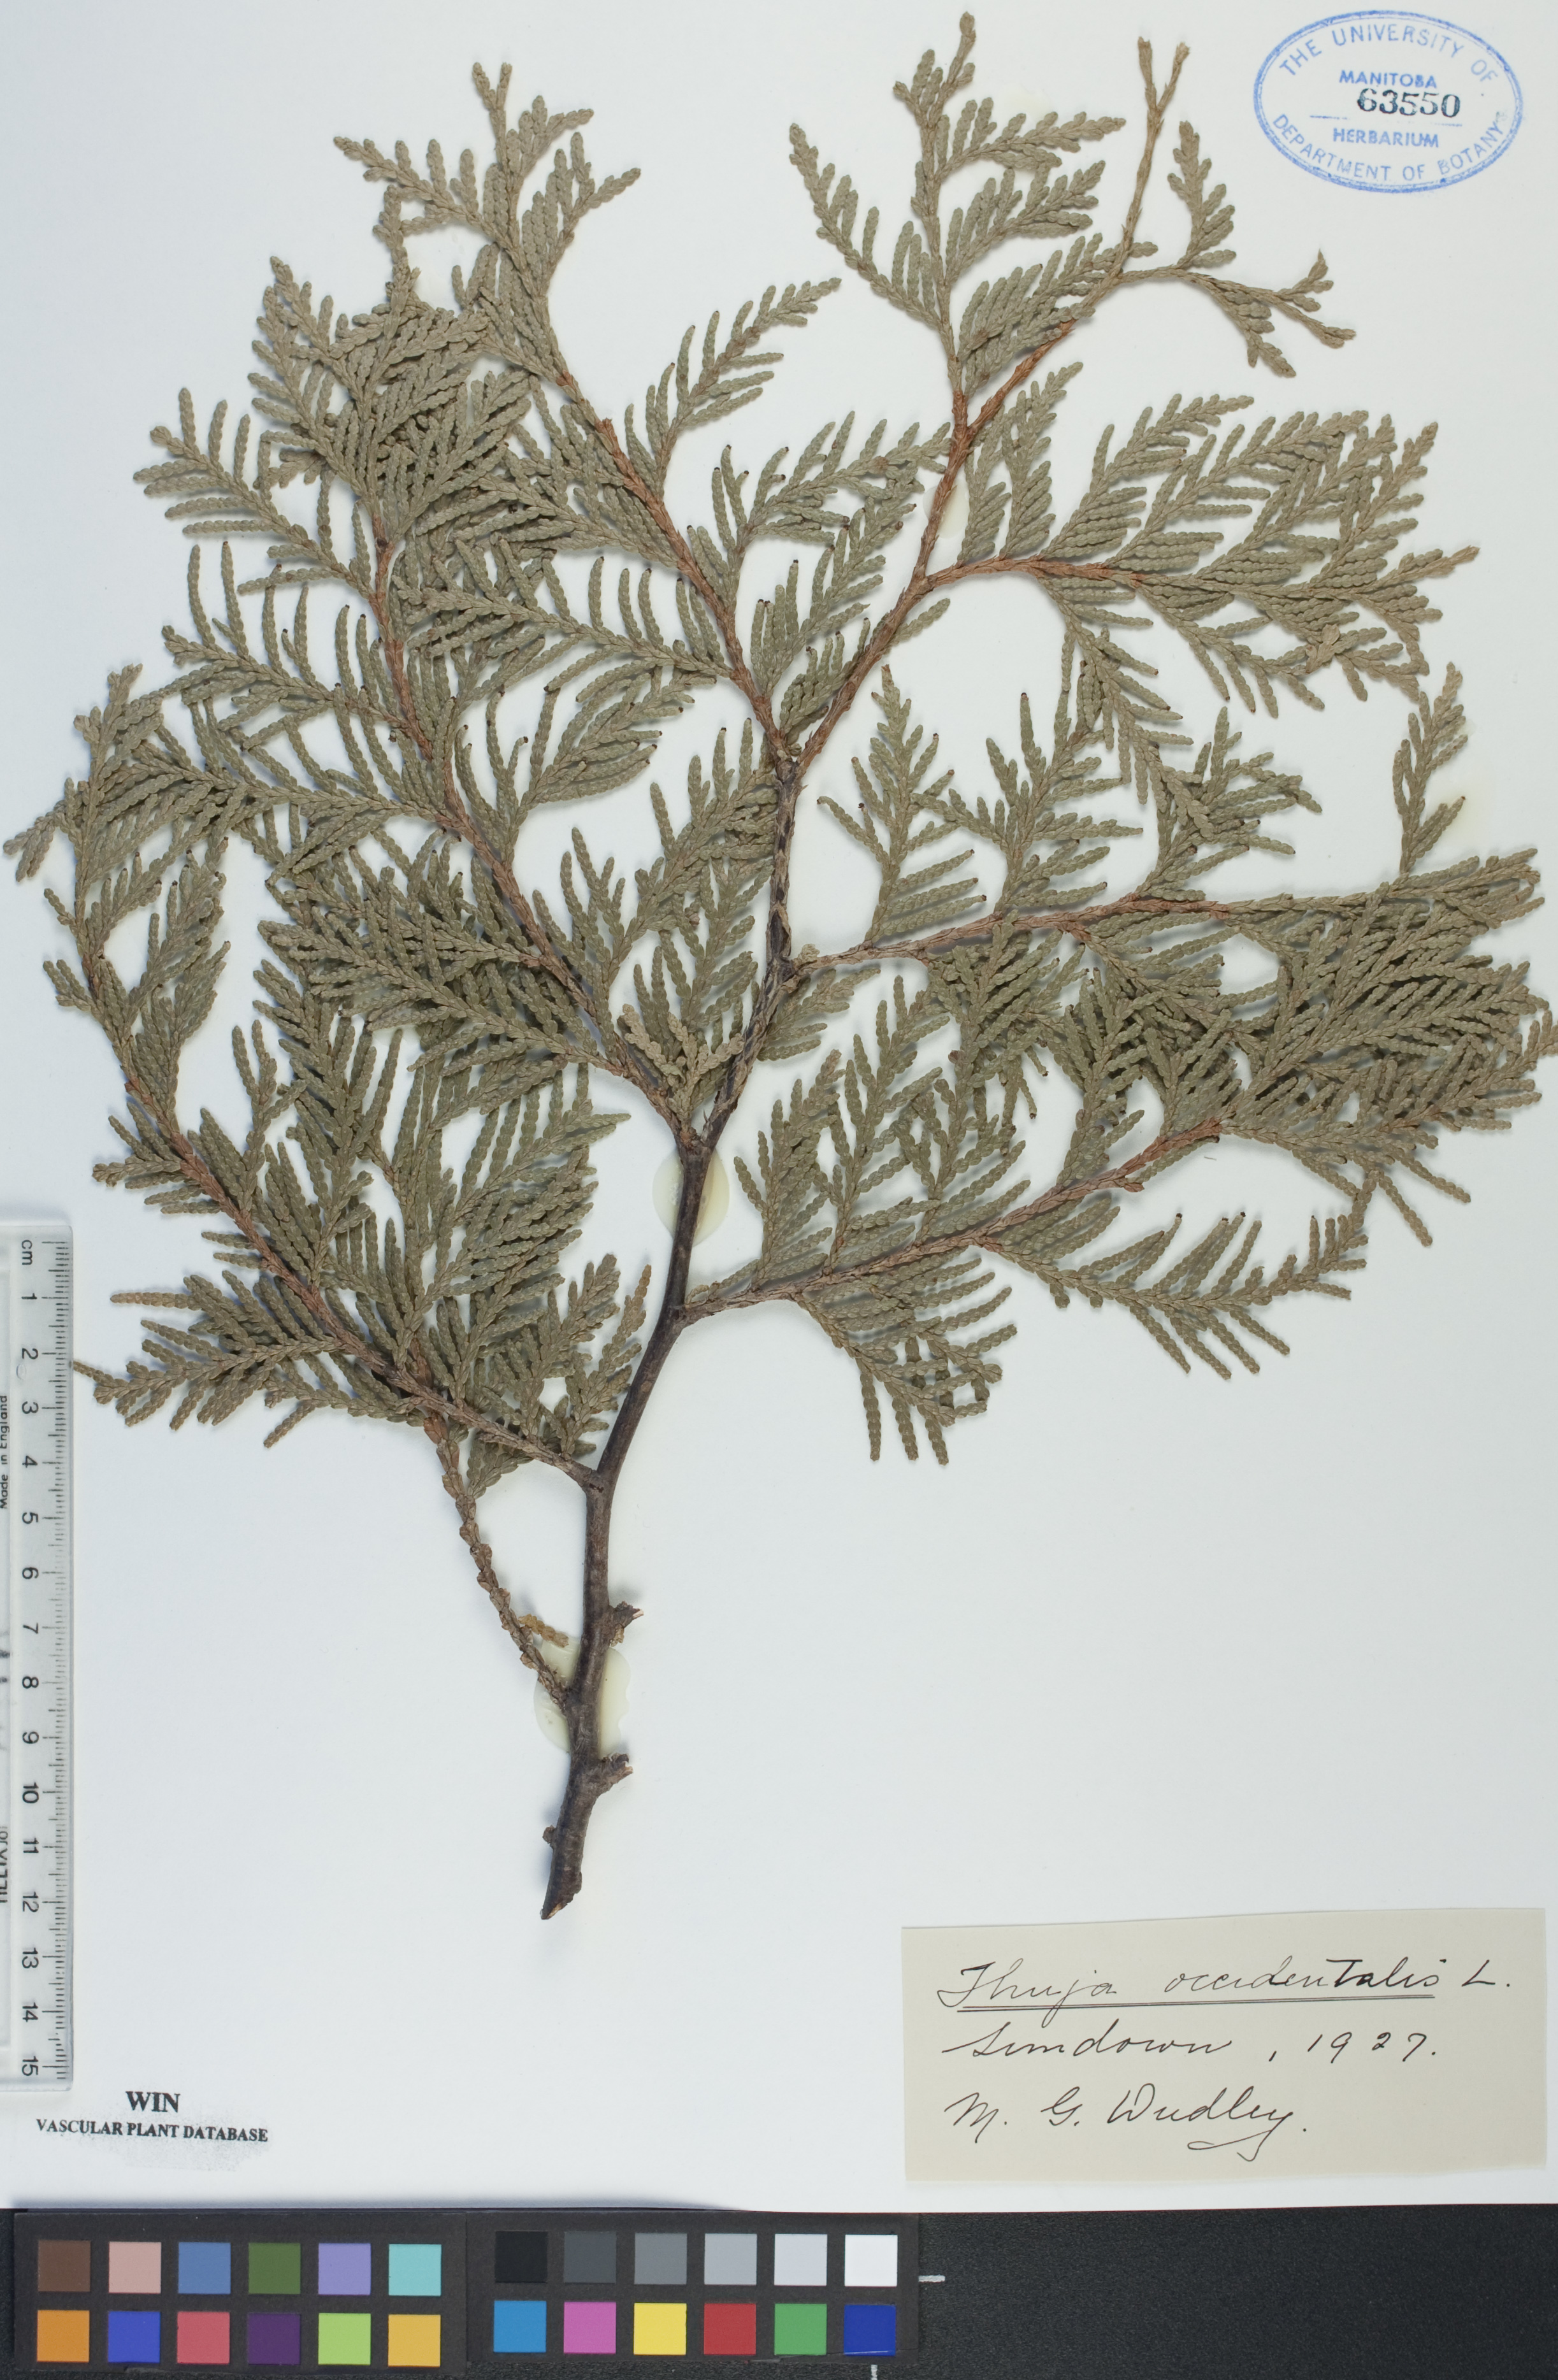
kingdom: Plantae
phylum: Tracheophyta
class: Pinopsida
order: Pinales
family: Cupressaceae
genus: Thuja
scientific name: Thuja occidentalis
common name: Northern white-cedar
